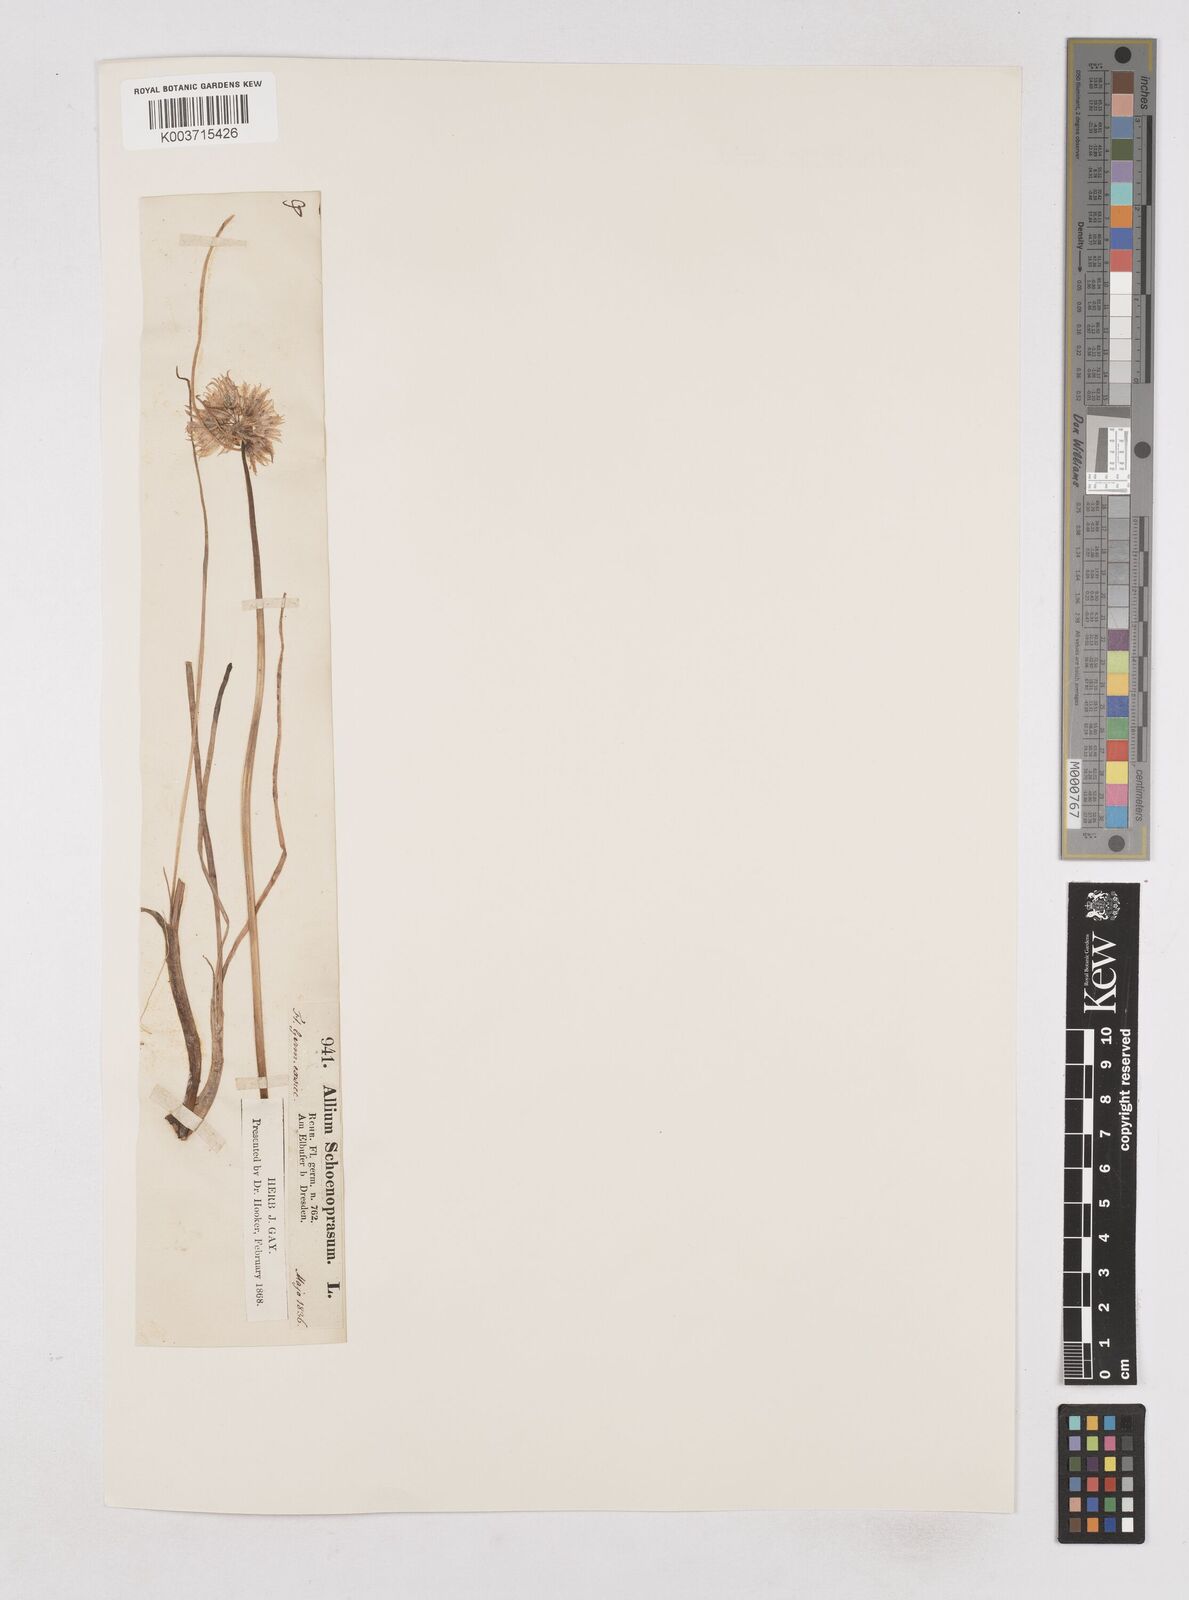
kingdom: Plantae
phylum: Tracheophyta
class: Liliopsida
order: Asparagales
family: Amaryllidaceae
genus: Allium
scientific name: Allium schoenoprasum
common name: Chives
